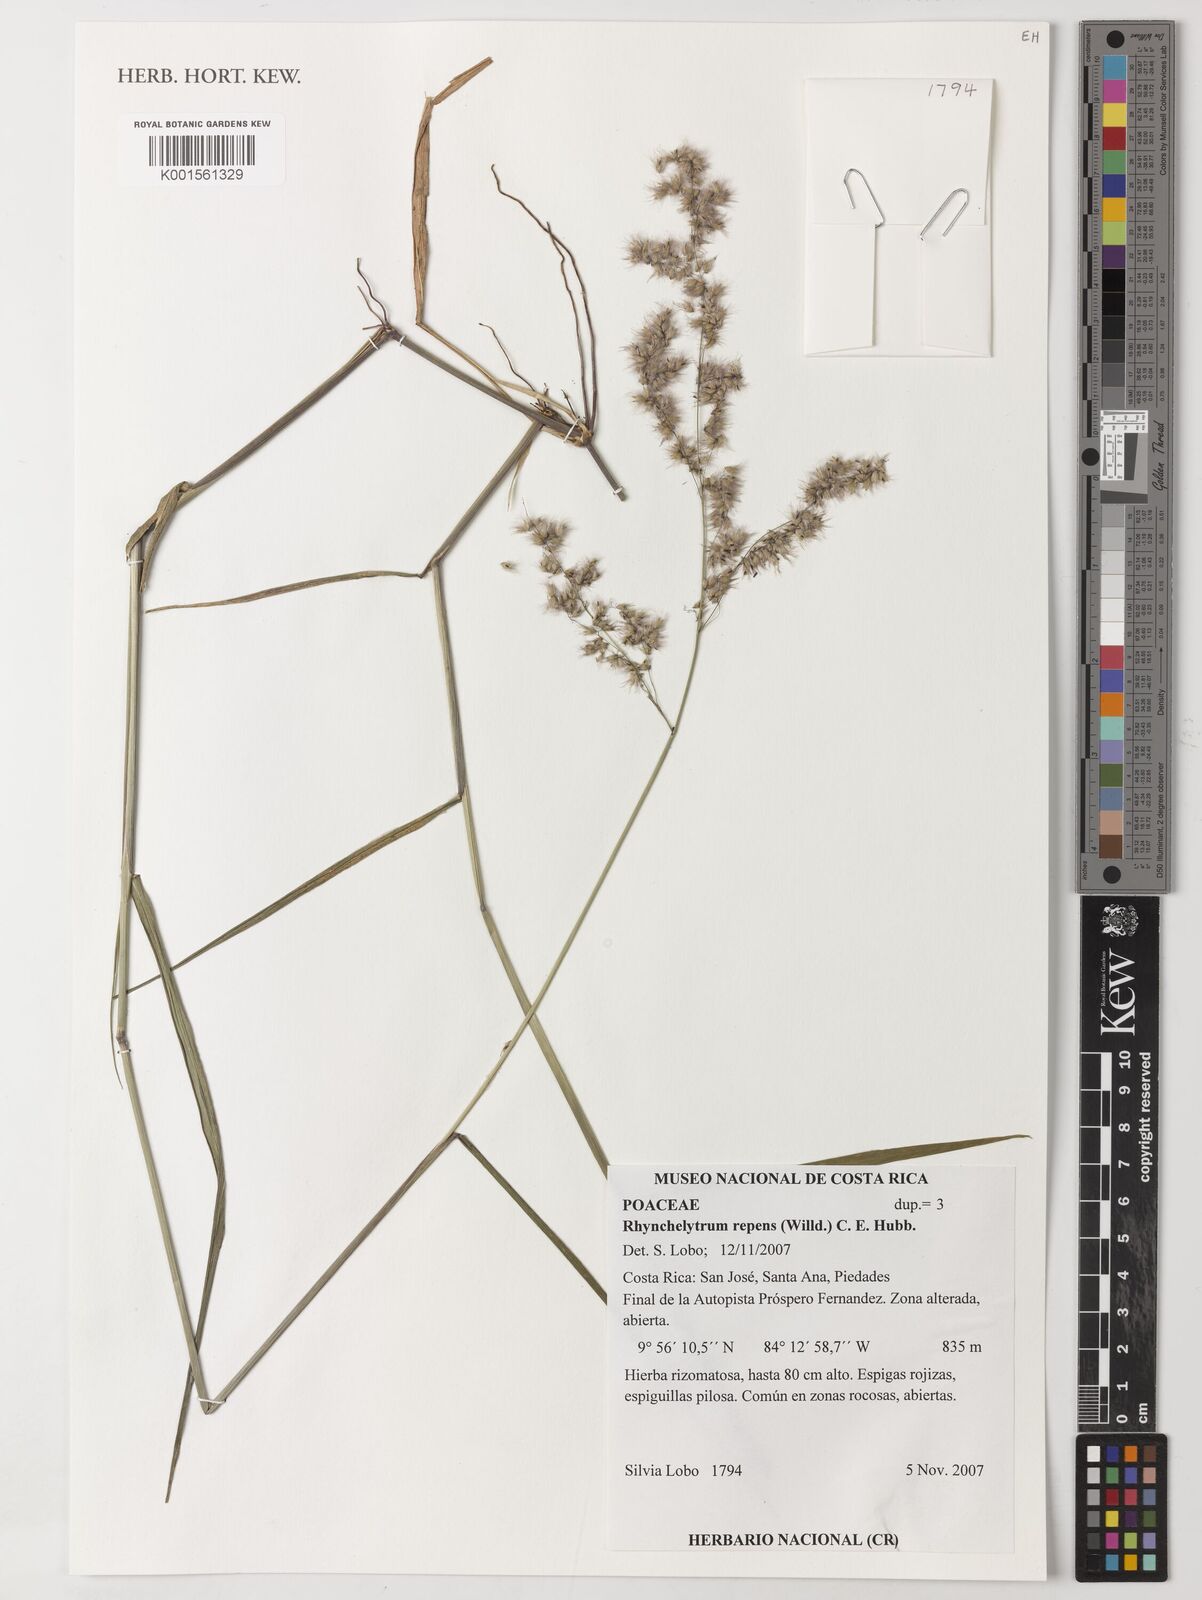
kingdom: Plantae
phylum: Tracheophyta
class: Liliopsida
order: Poales
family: Poaceae
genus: Melinis
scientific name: Melinis repens
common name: Rose natal grass
